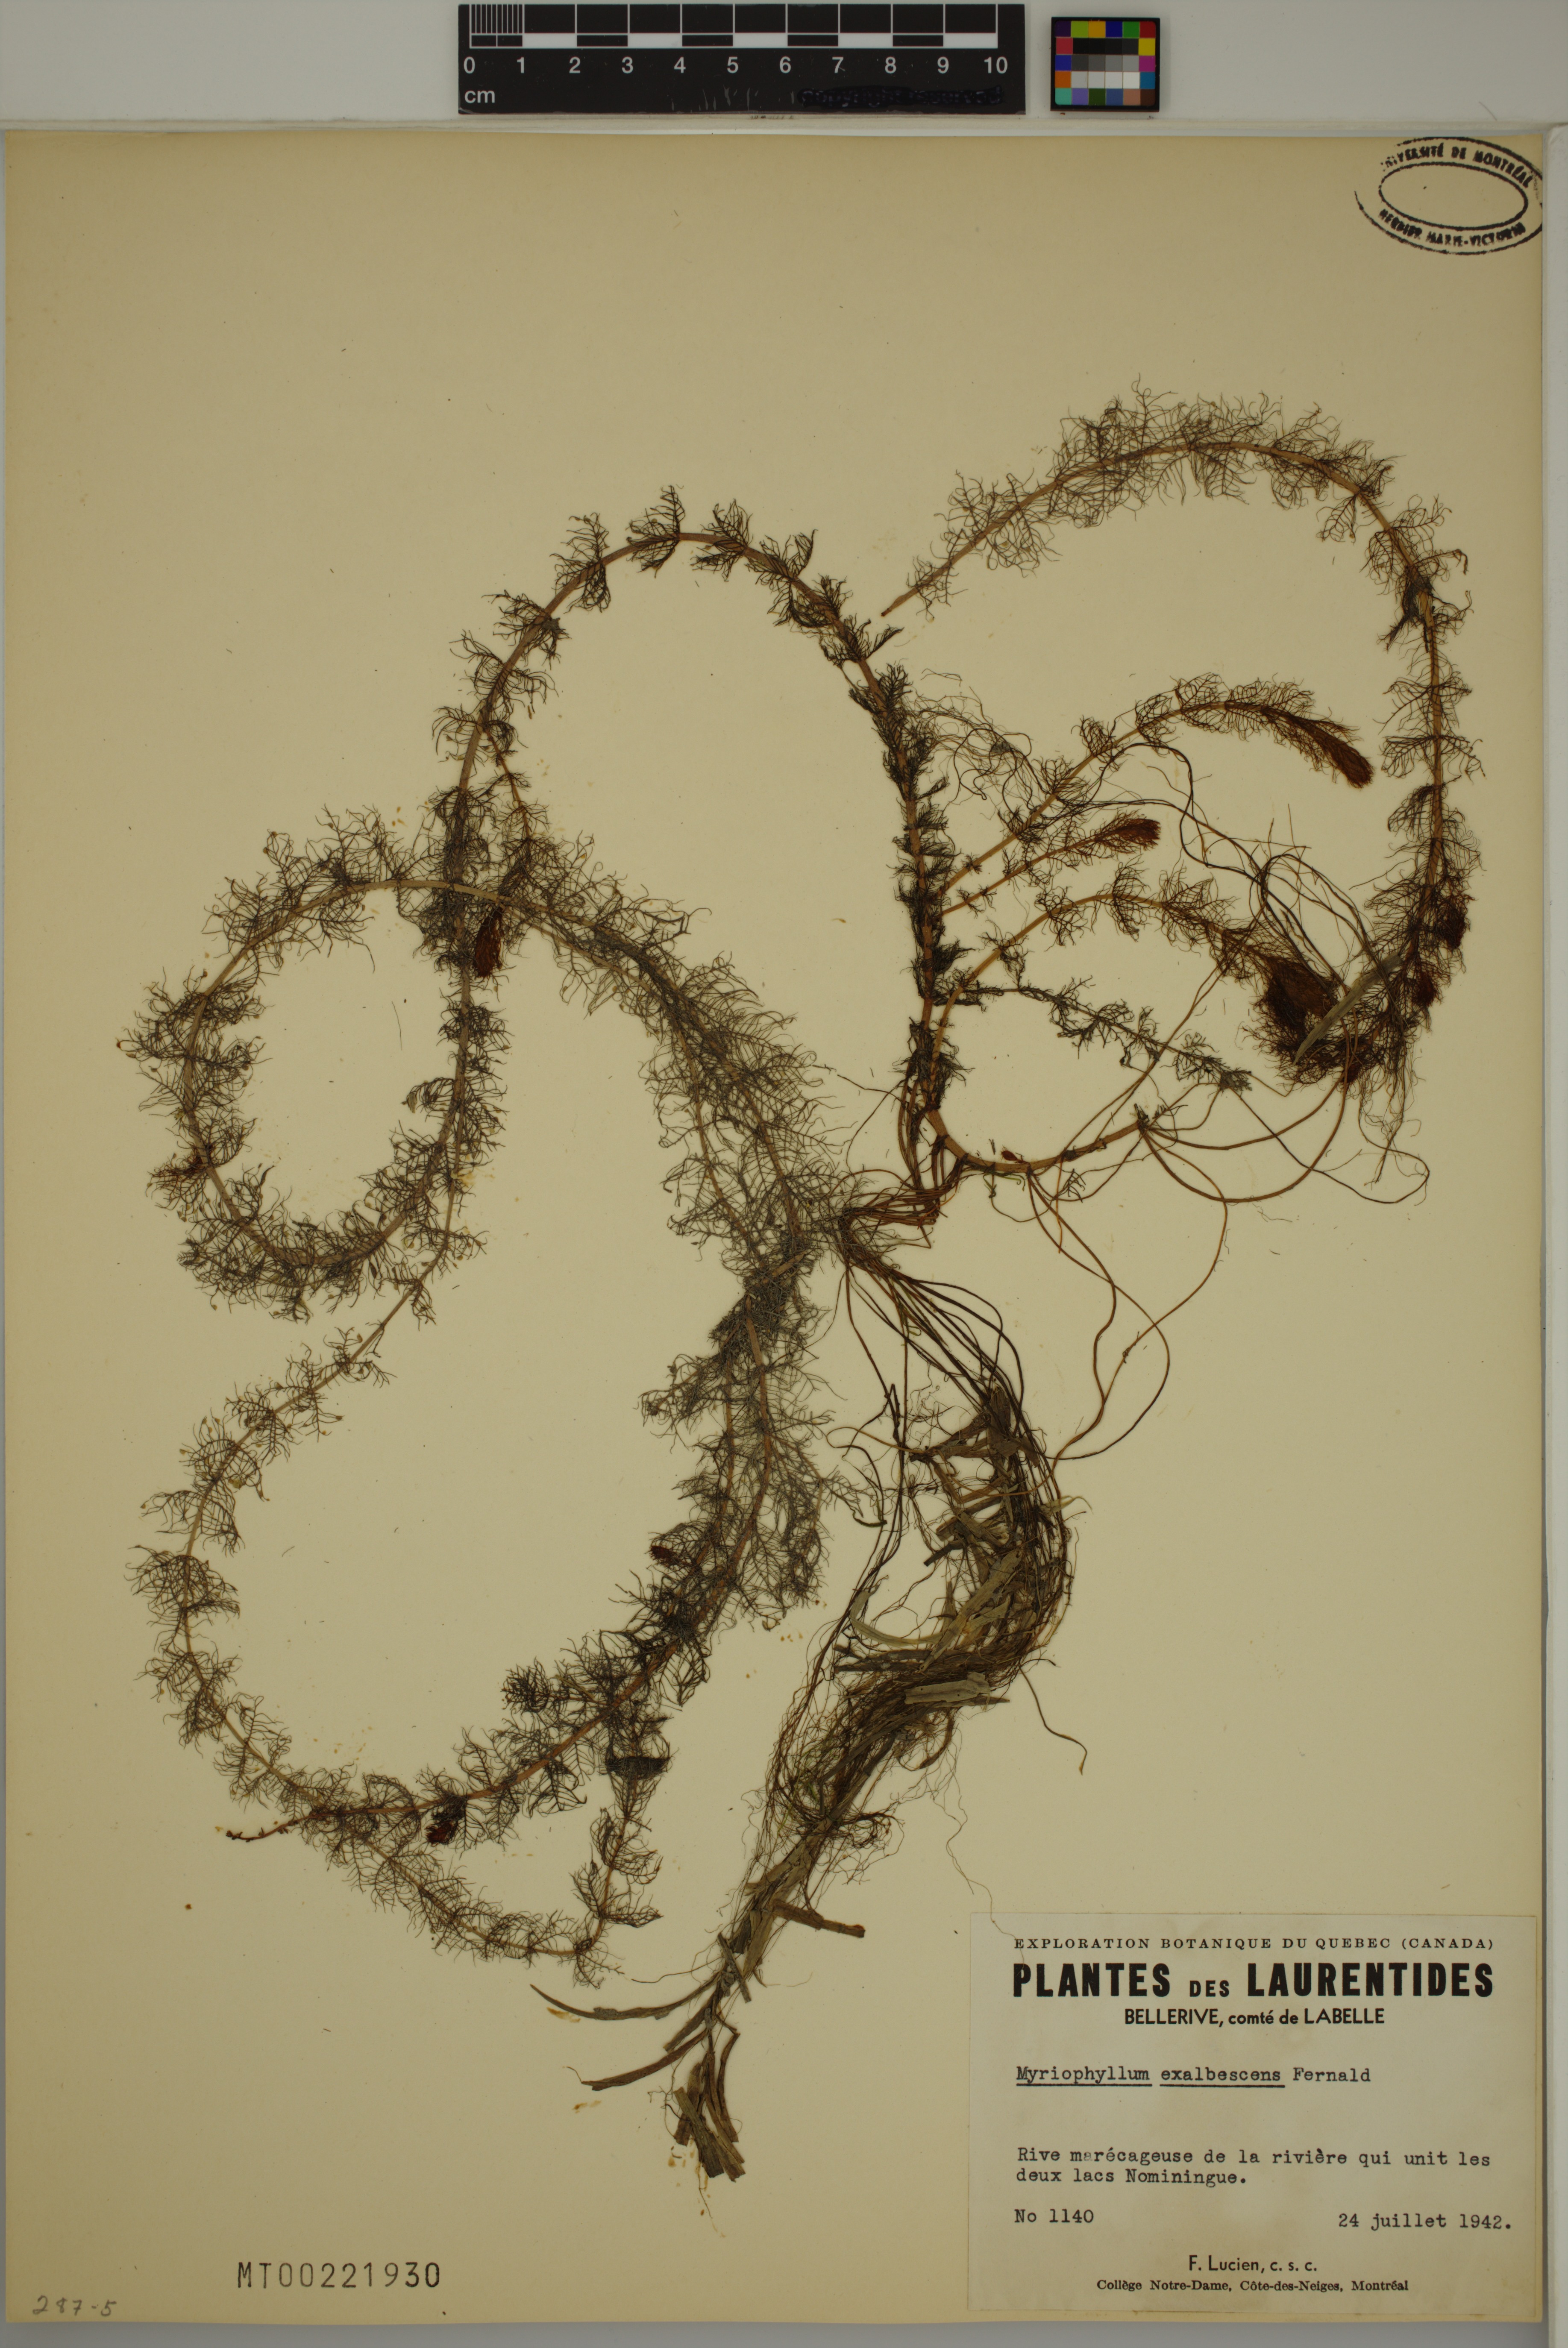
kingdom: Plantae
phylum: Tracheophyta
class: Magnoliopsida
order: Saxifragales
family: Haloragaceae
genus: Myriophyllum
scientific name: Myriophyllum sibiricum
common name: Siberian water-milfoil
